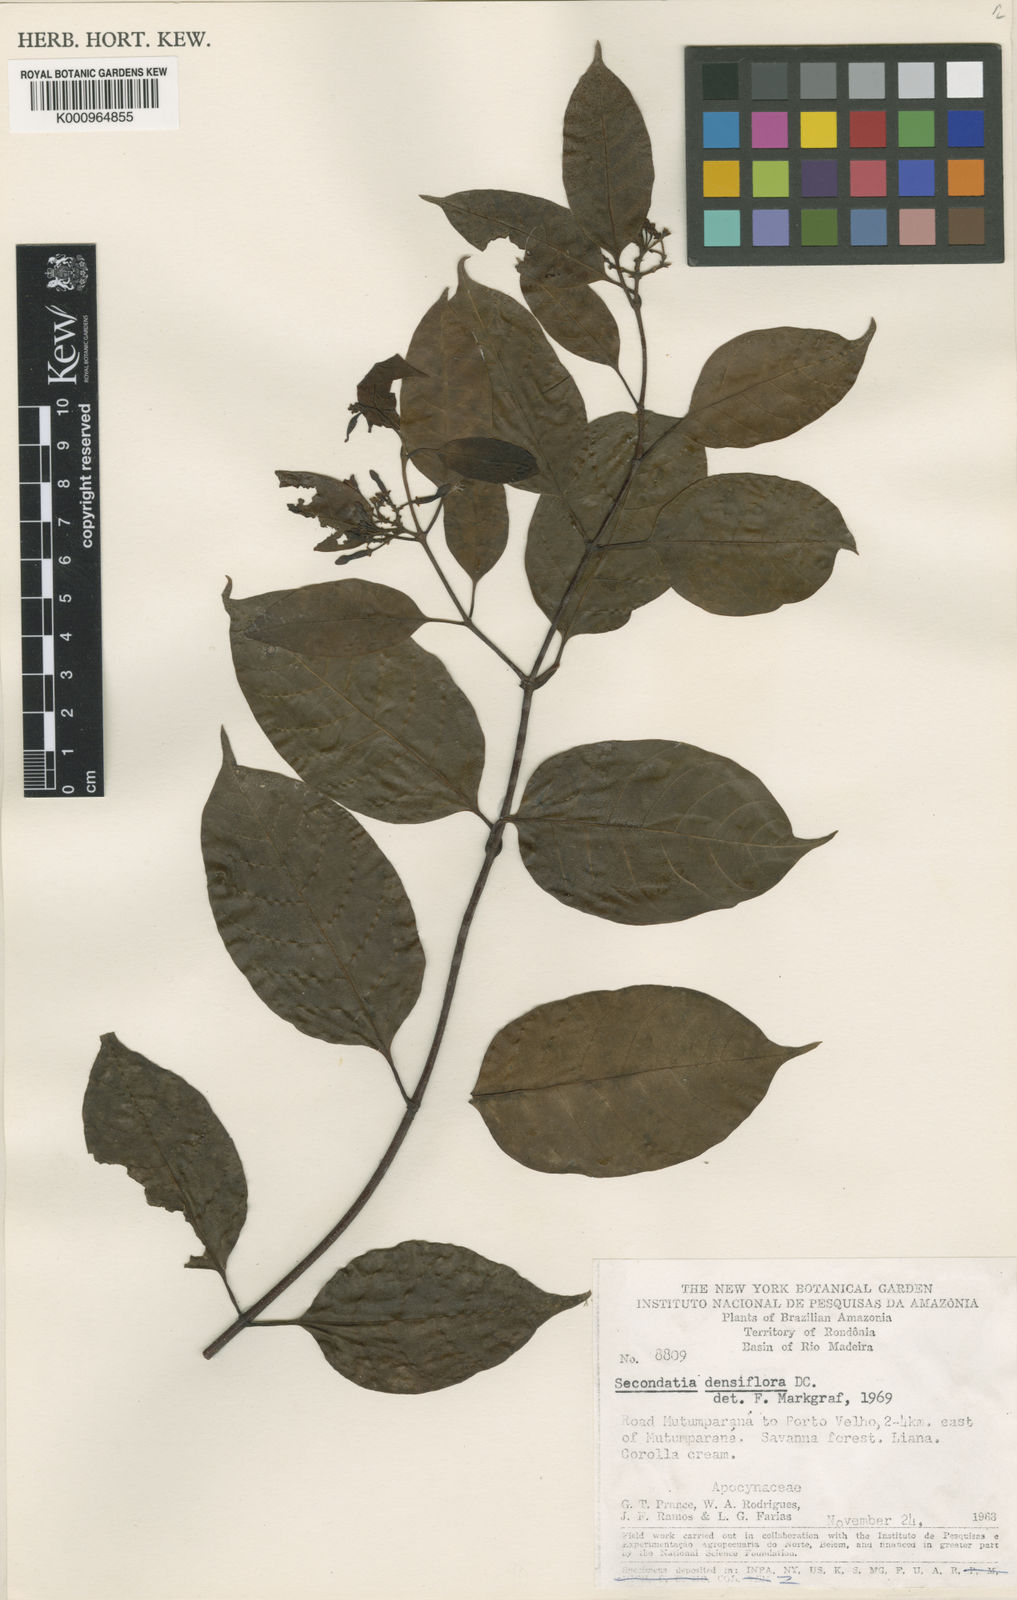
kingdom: Plantae
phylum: Tracheophyta
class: Magnoliopsida
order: Gentianales
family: Apocynaceae
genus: Secondatia
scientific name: Secondatia densiflora
